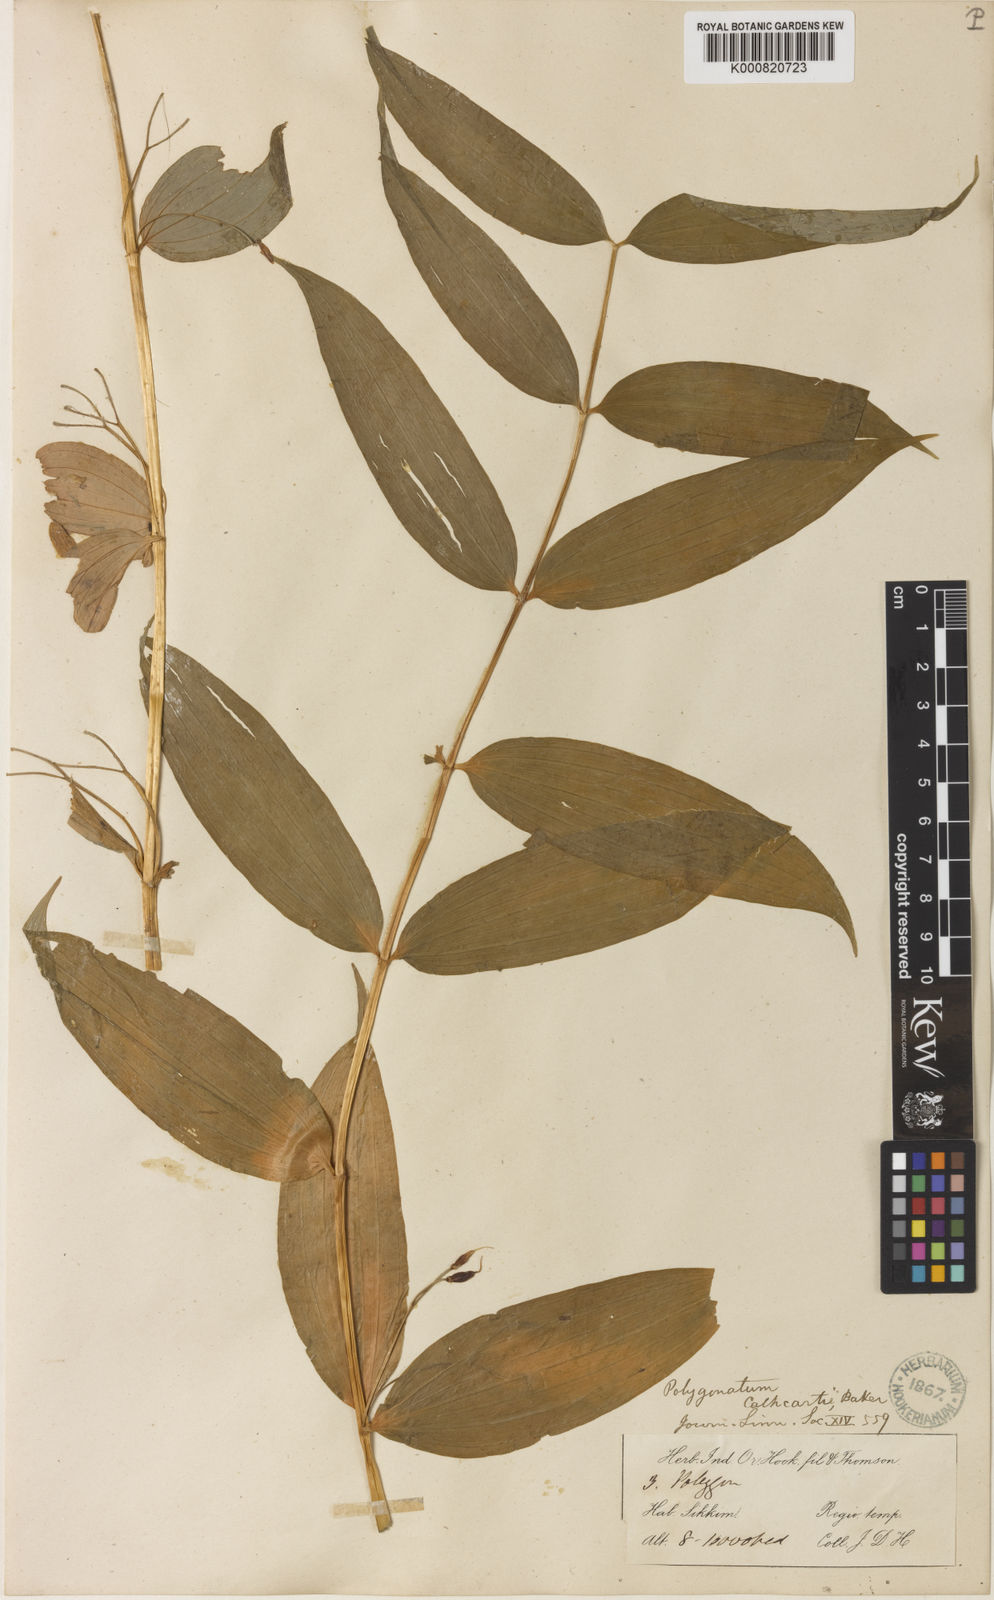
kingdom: Plantae
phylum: Tracheophyta
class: Liliopsida
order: Asparagales
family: Asparagaceae
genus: Polygonatum
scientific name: Polygonatum cathcartii
